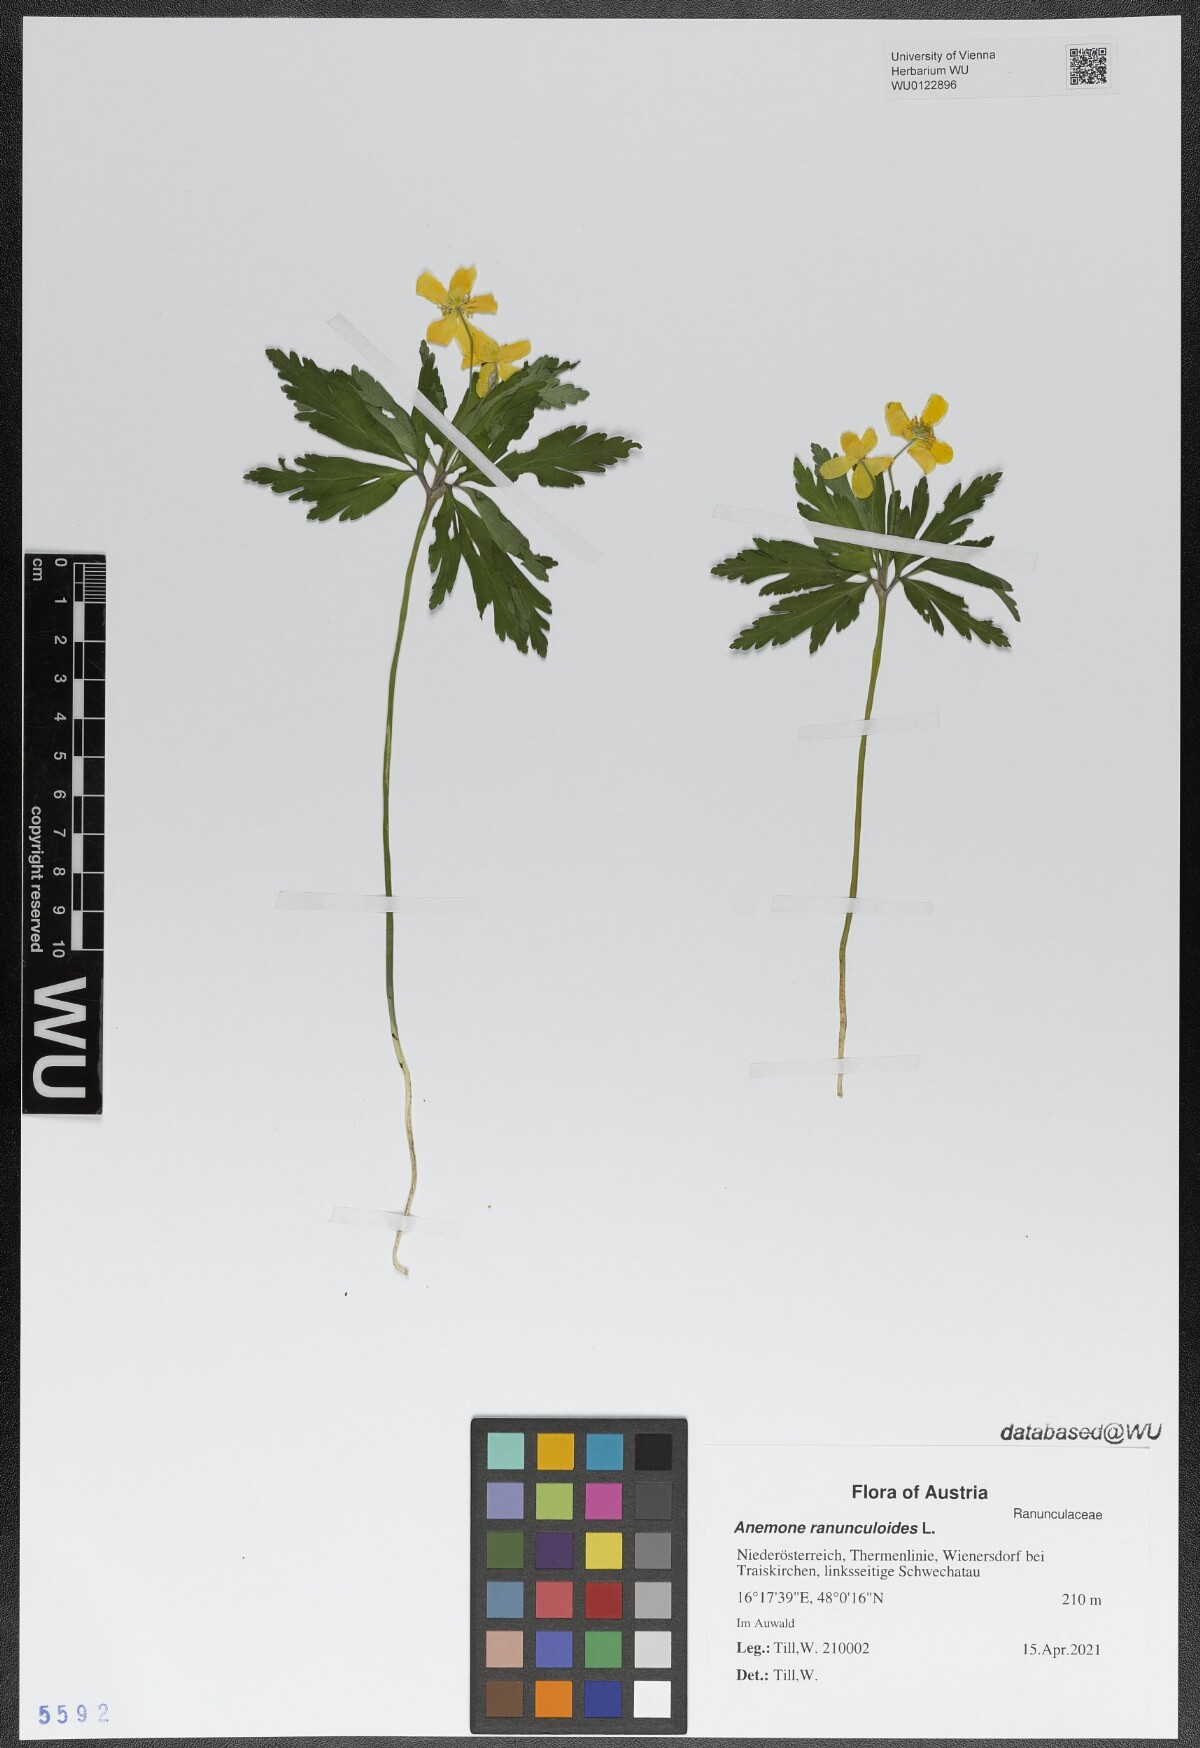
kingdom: Plantae
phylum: Tracheophyta
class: Magnoliopsida
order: Ranunculales
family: Ranunculaceae
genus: Anemone
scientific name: Anemone ranunculoides
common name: Yellow anemone
